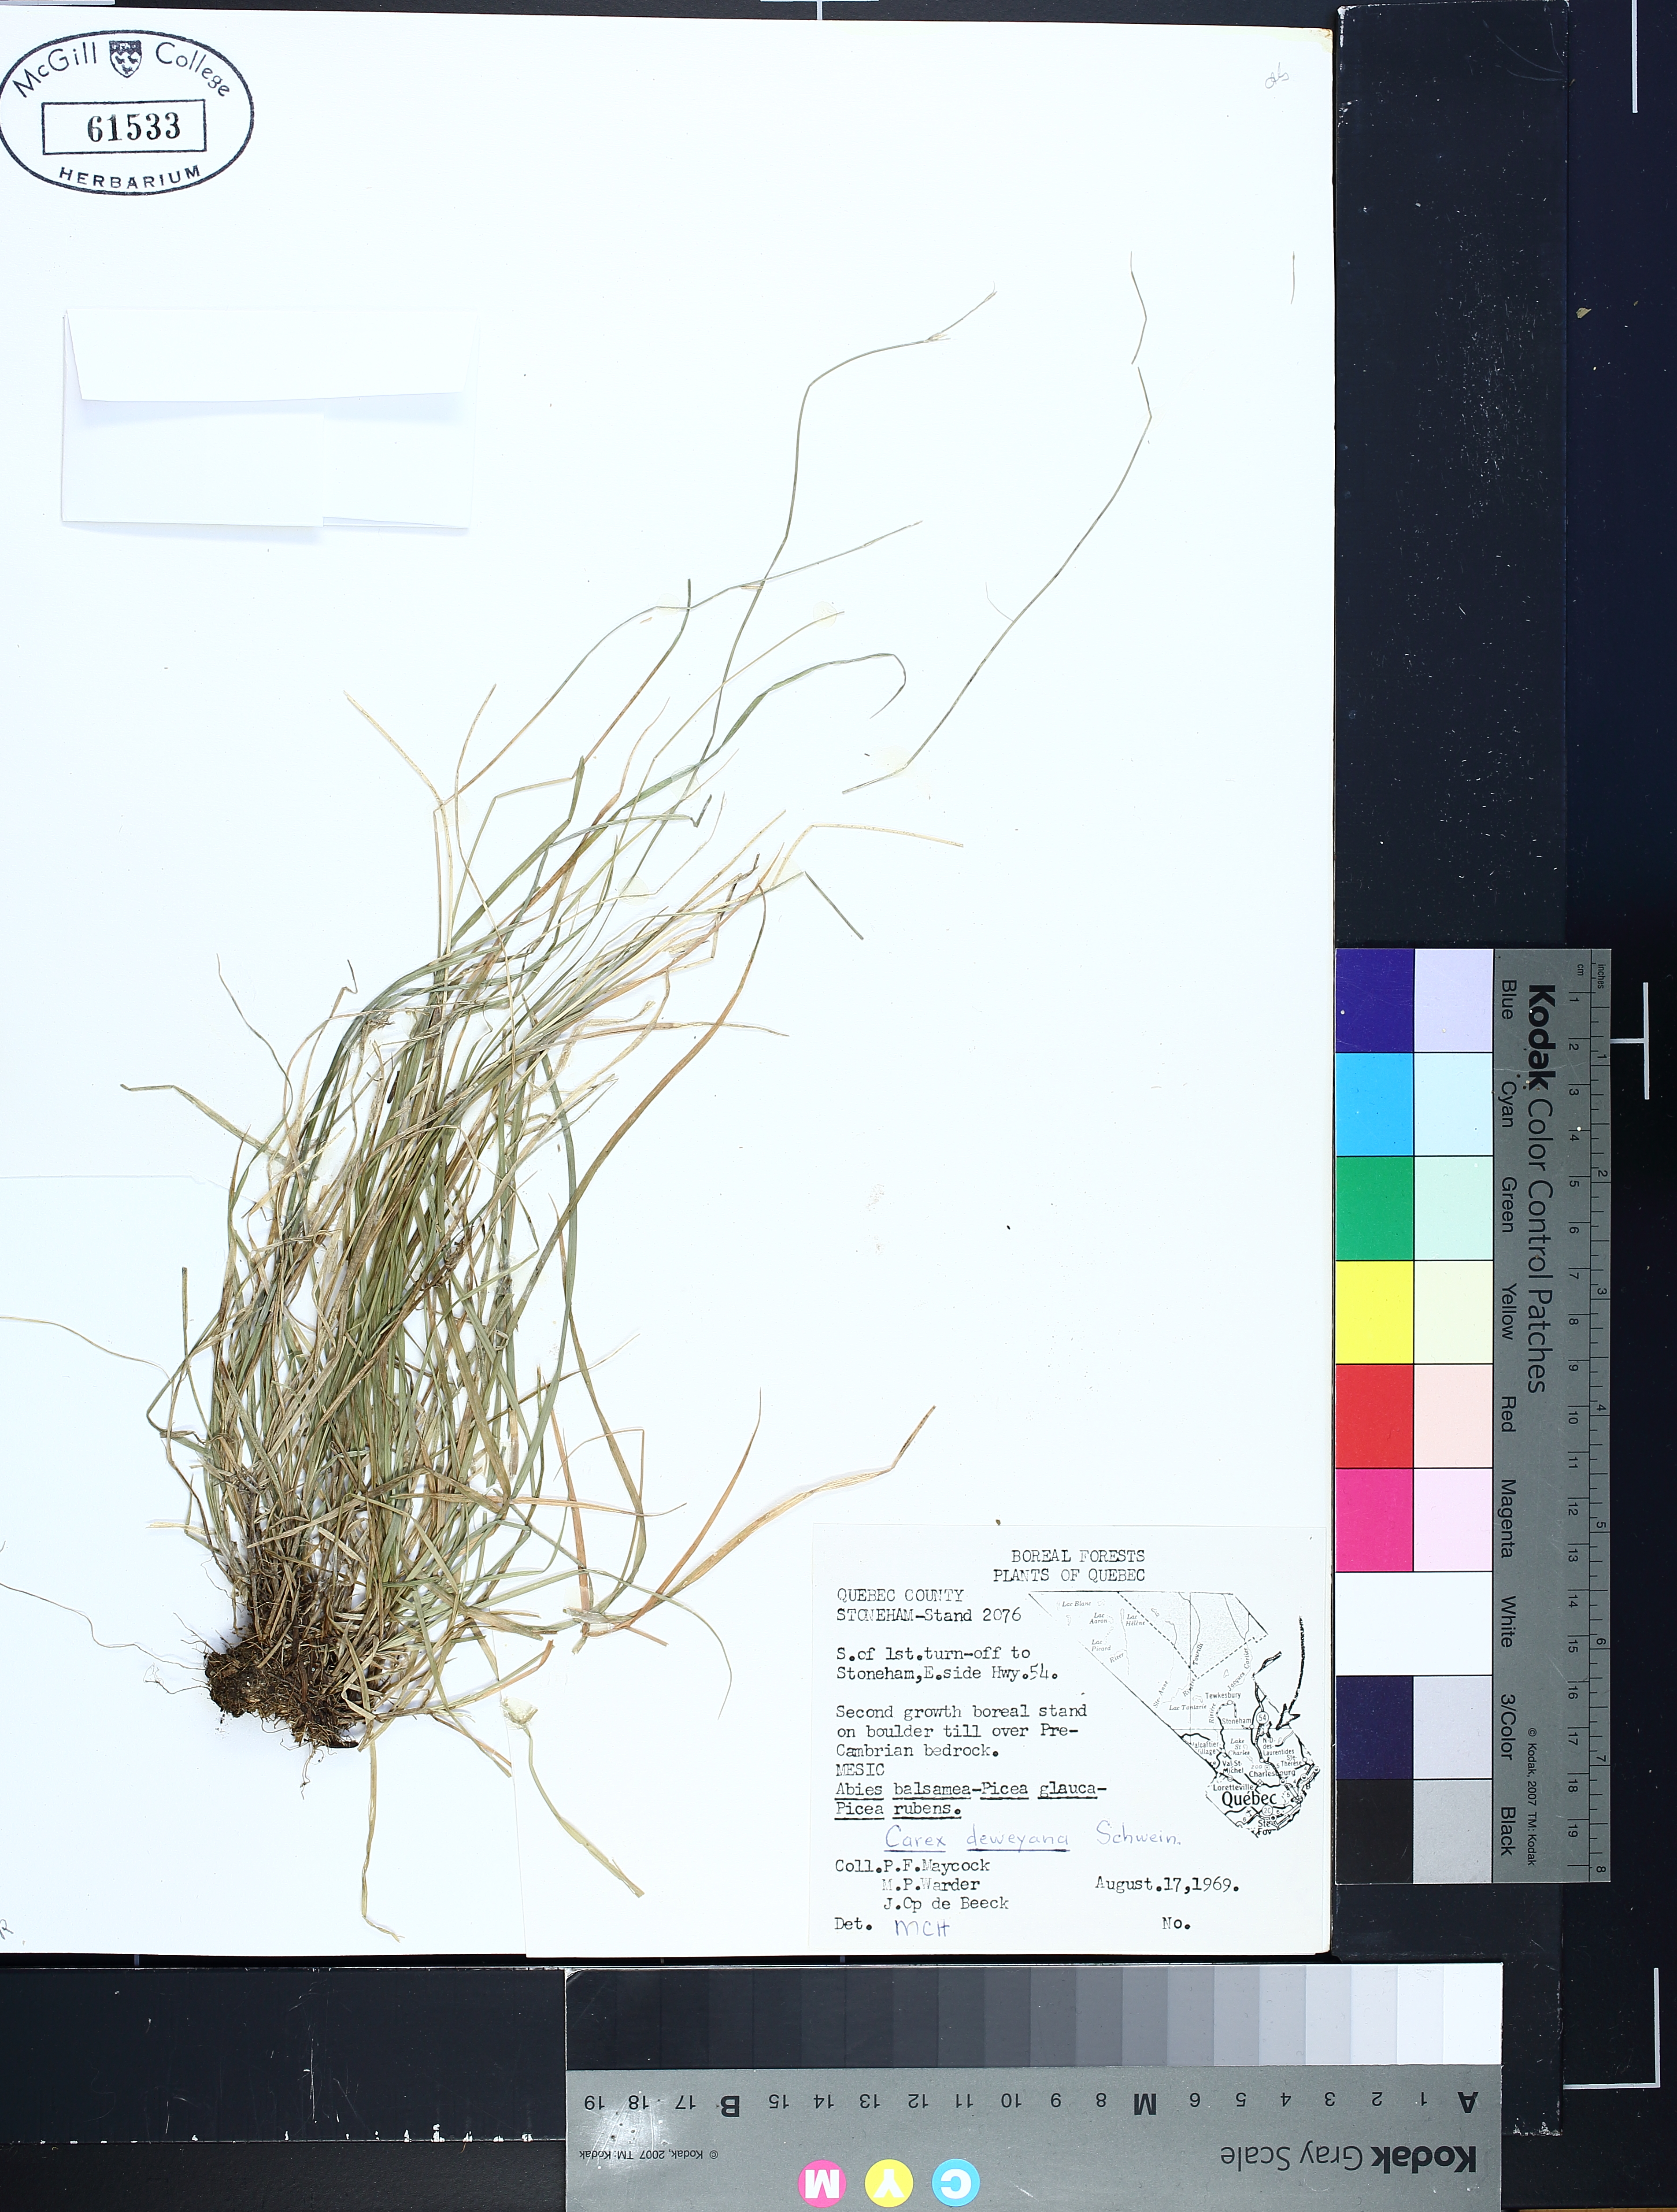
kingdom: Plantae
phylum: Tracheophyta
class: Liliopsida
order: Poales
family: Cyperaceae
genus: Carex
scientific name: Carex deweyana
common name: Dewey's sedge
